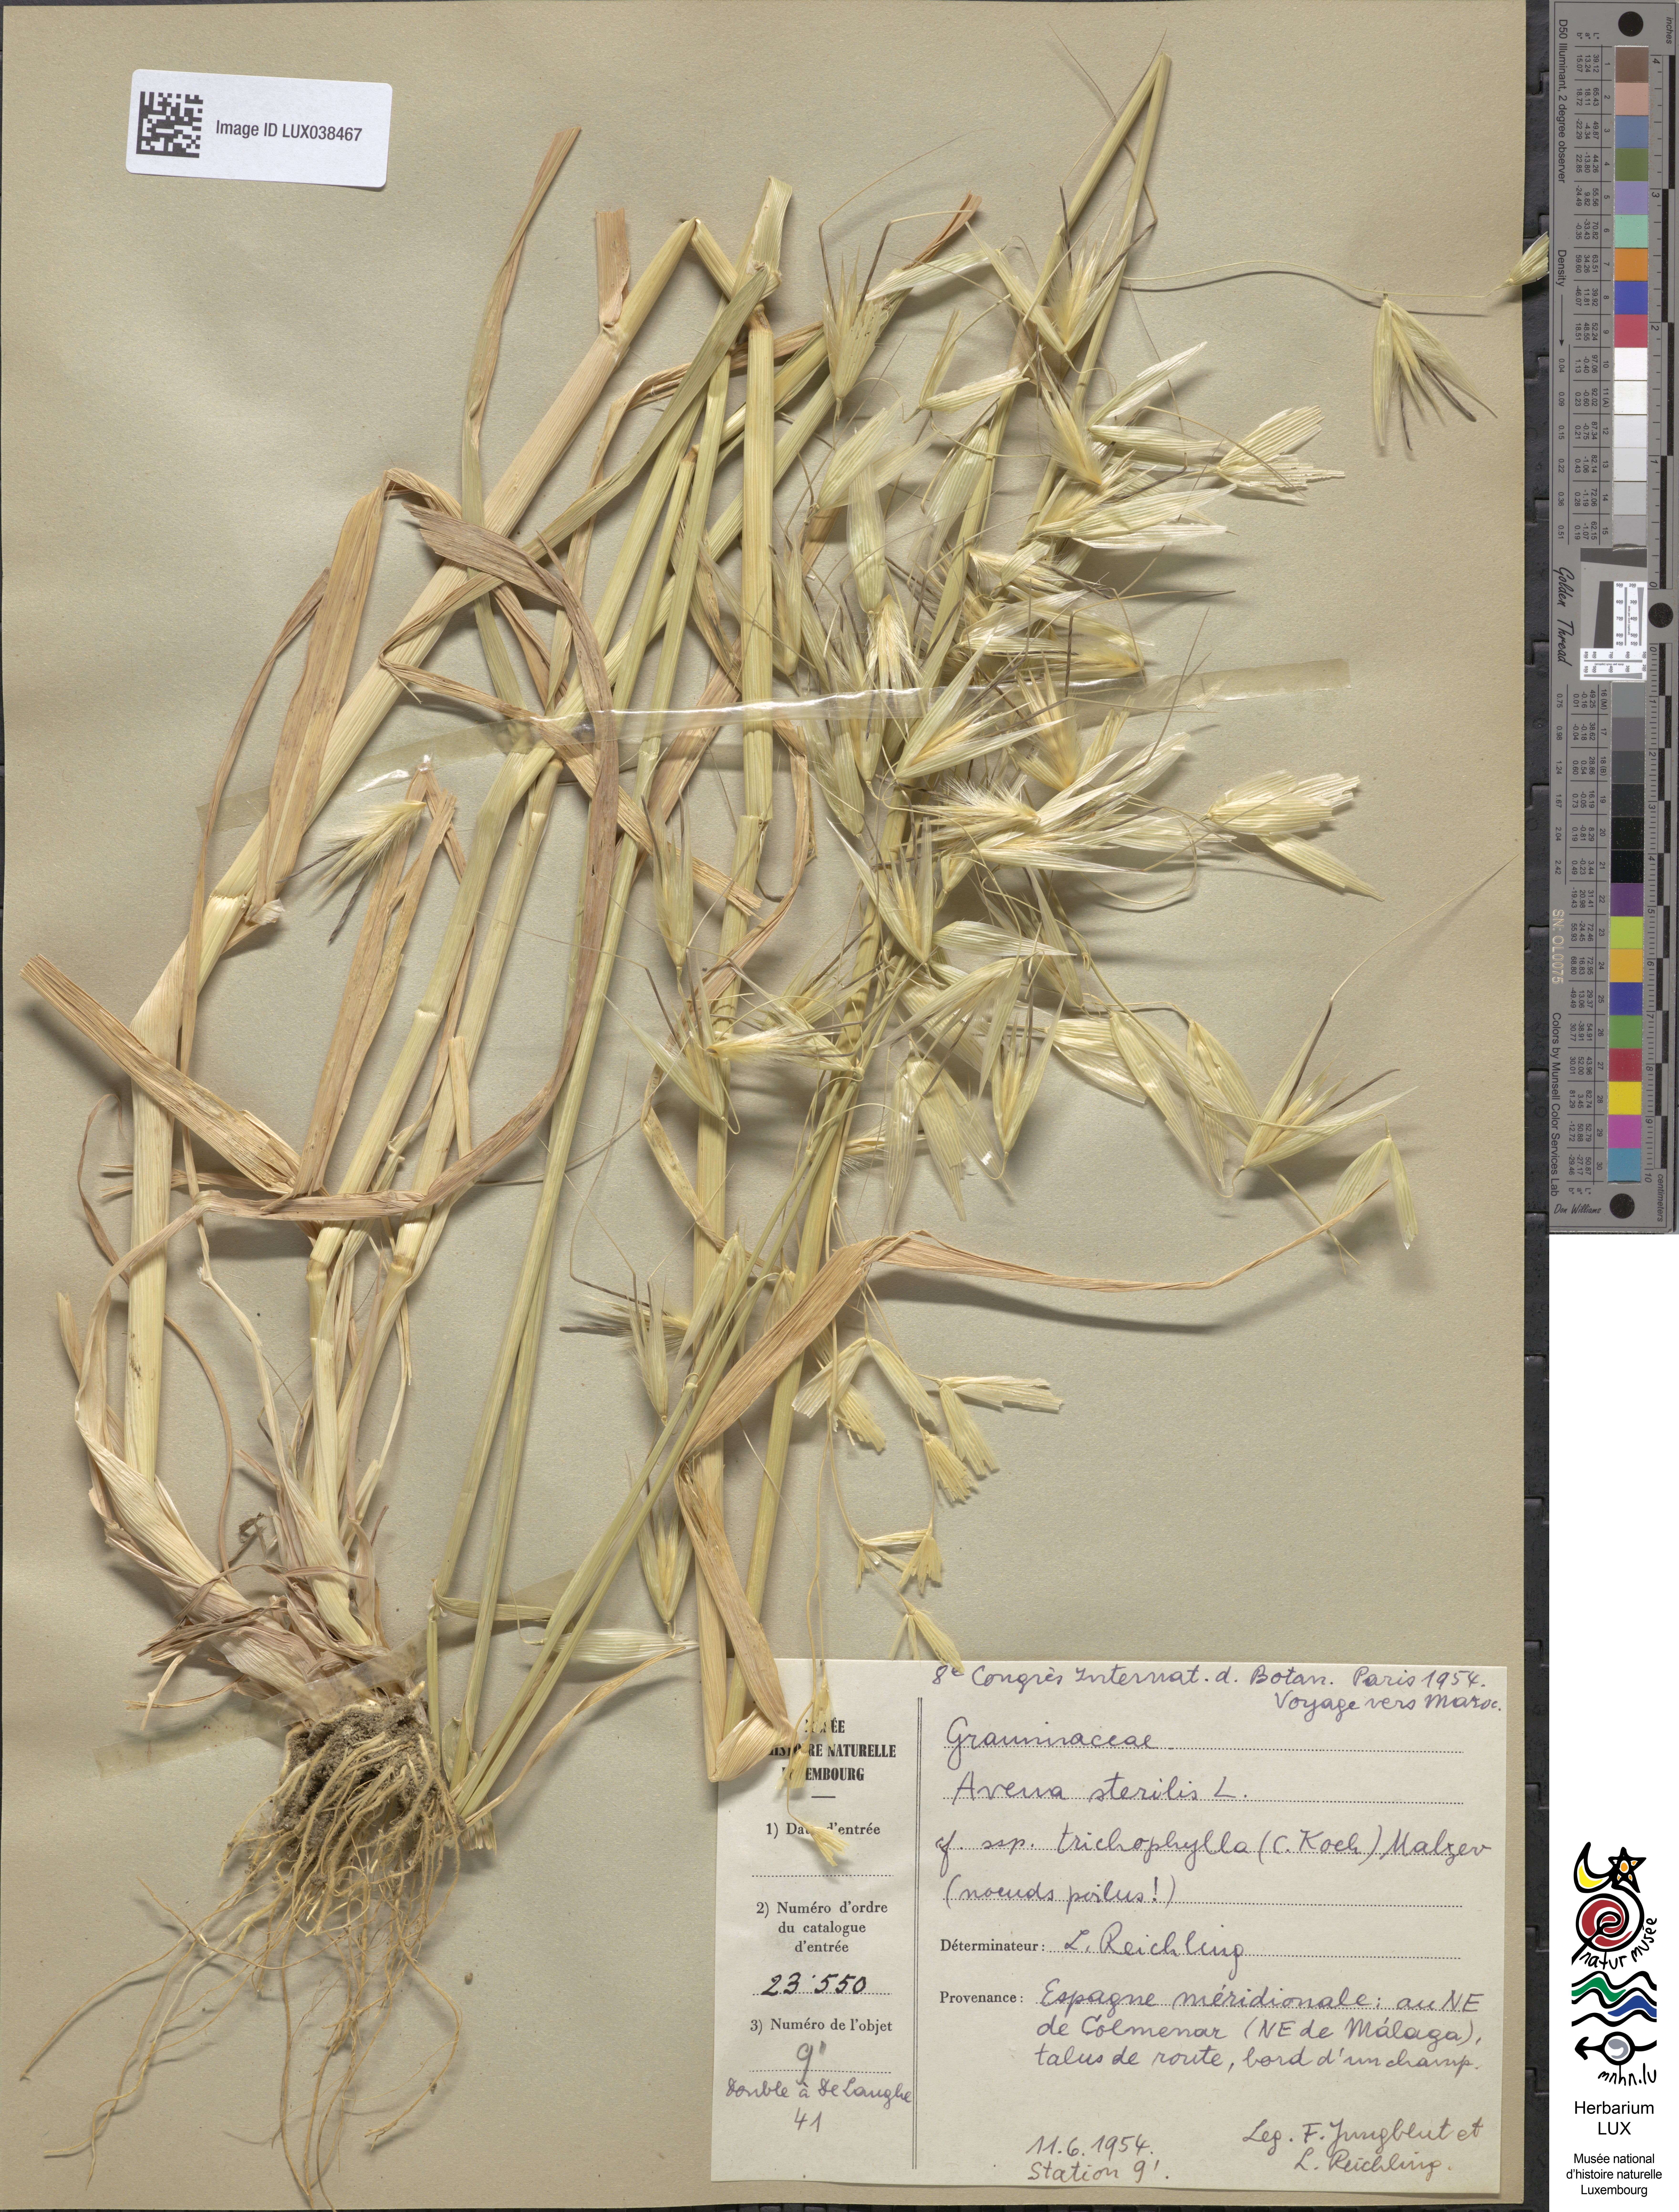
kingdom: Plantae
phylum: Tracheophyta
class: Liliopsida
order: Poales
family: Poaceae
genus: Avena
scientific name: Avena sterilis
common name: Animated oat
